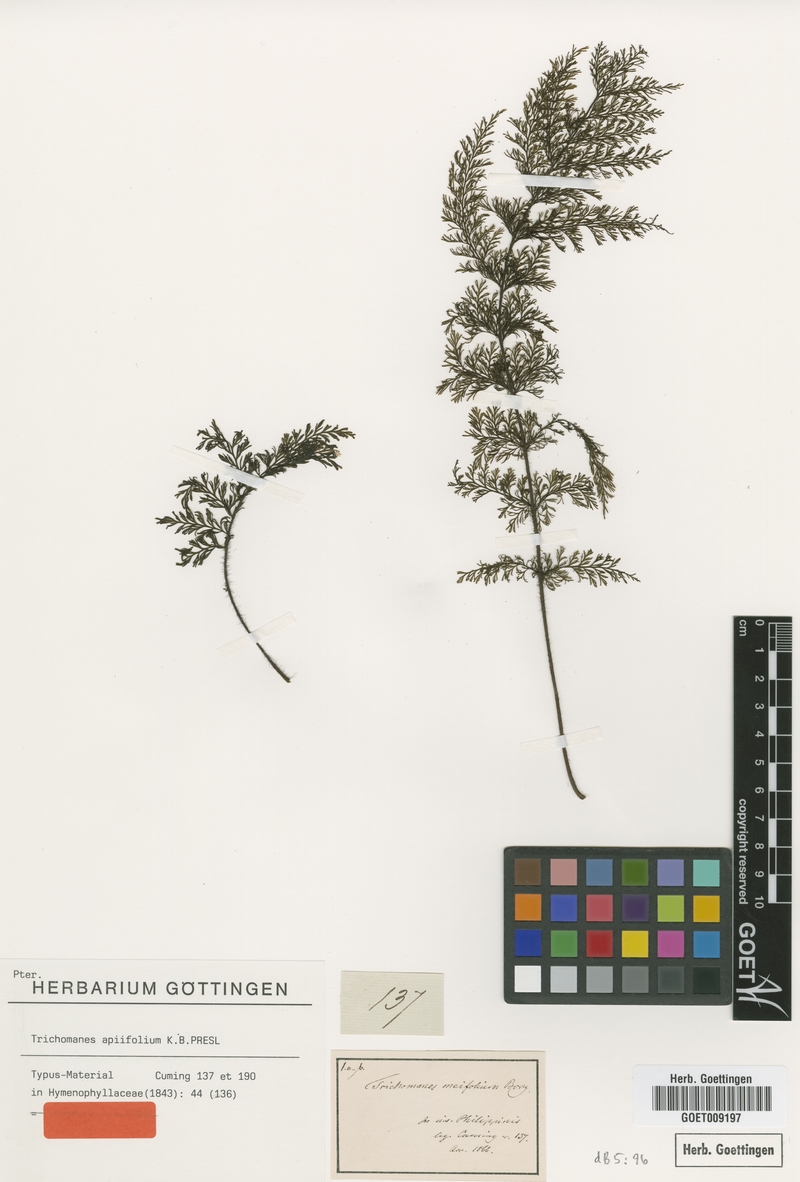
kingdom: Plantae
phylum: Tracheophyta
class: Polypodiopsida
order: Hymenophyllales
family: Hymenophyllaceae
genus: Callistopteris
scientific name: Callistopteris apiifolia
